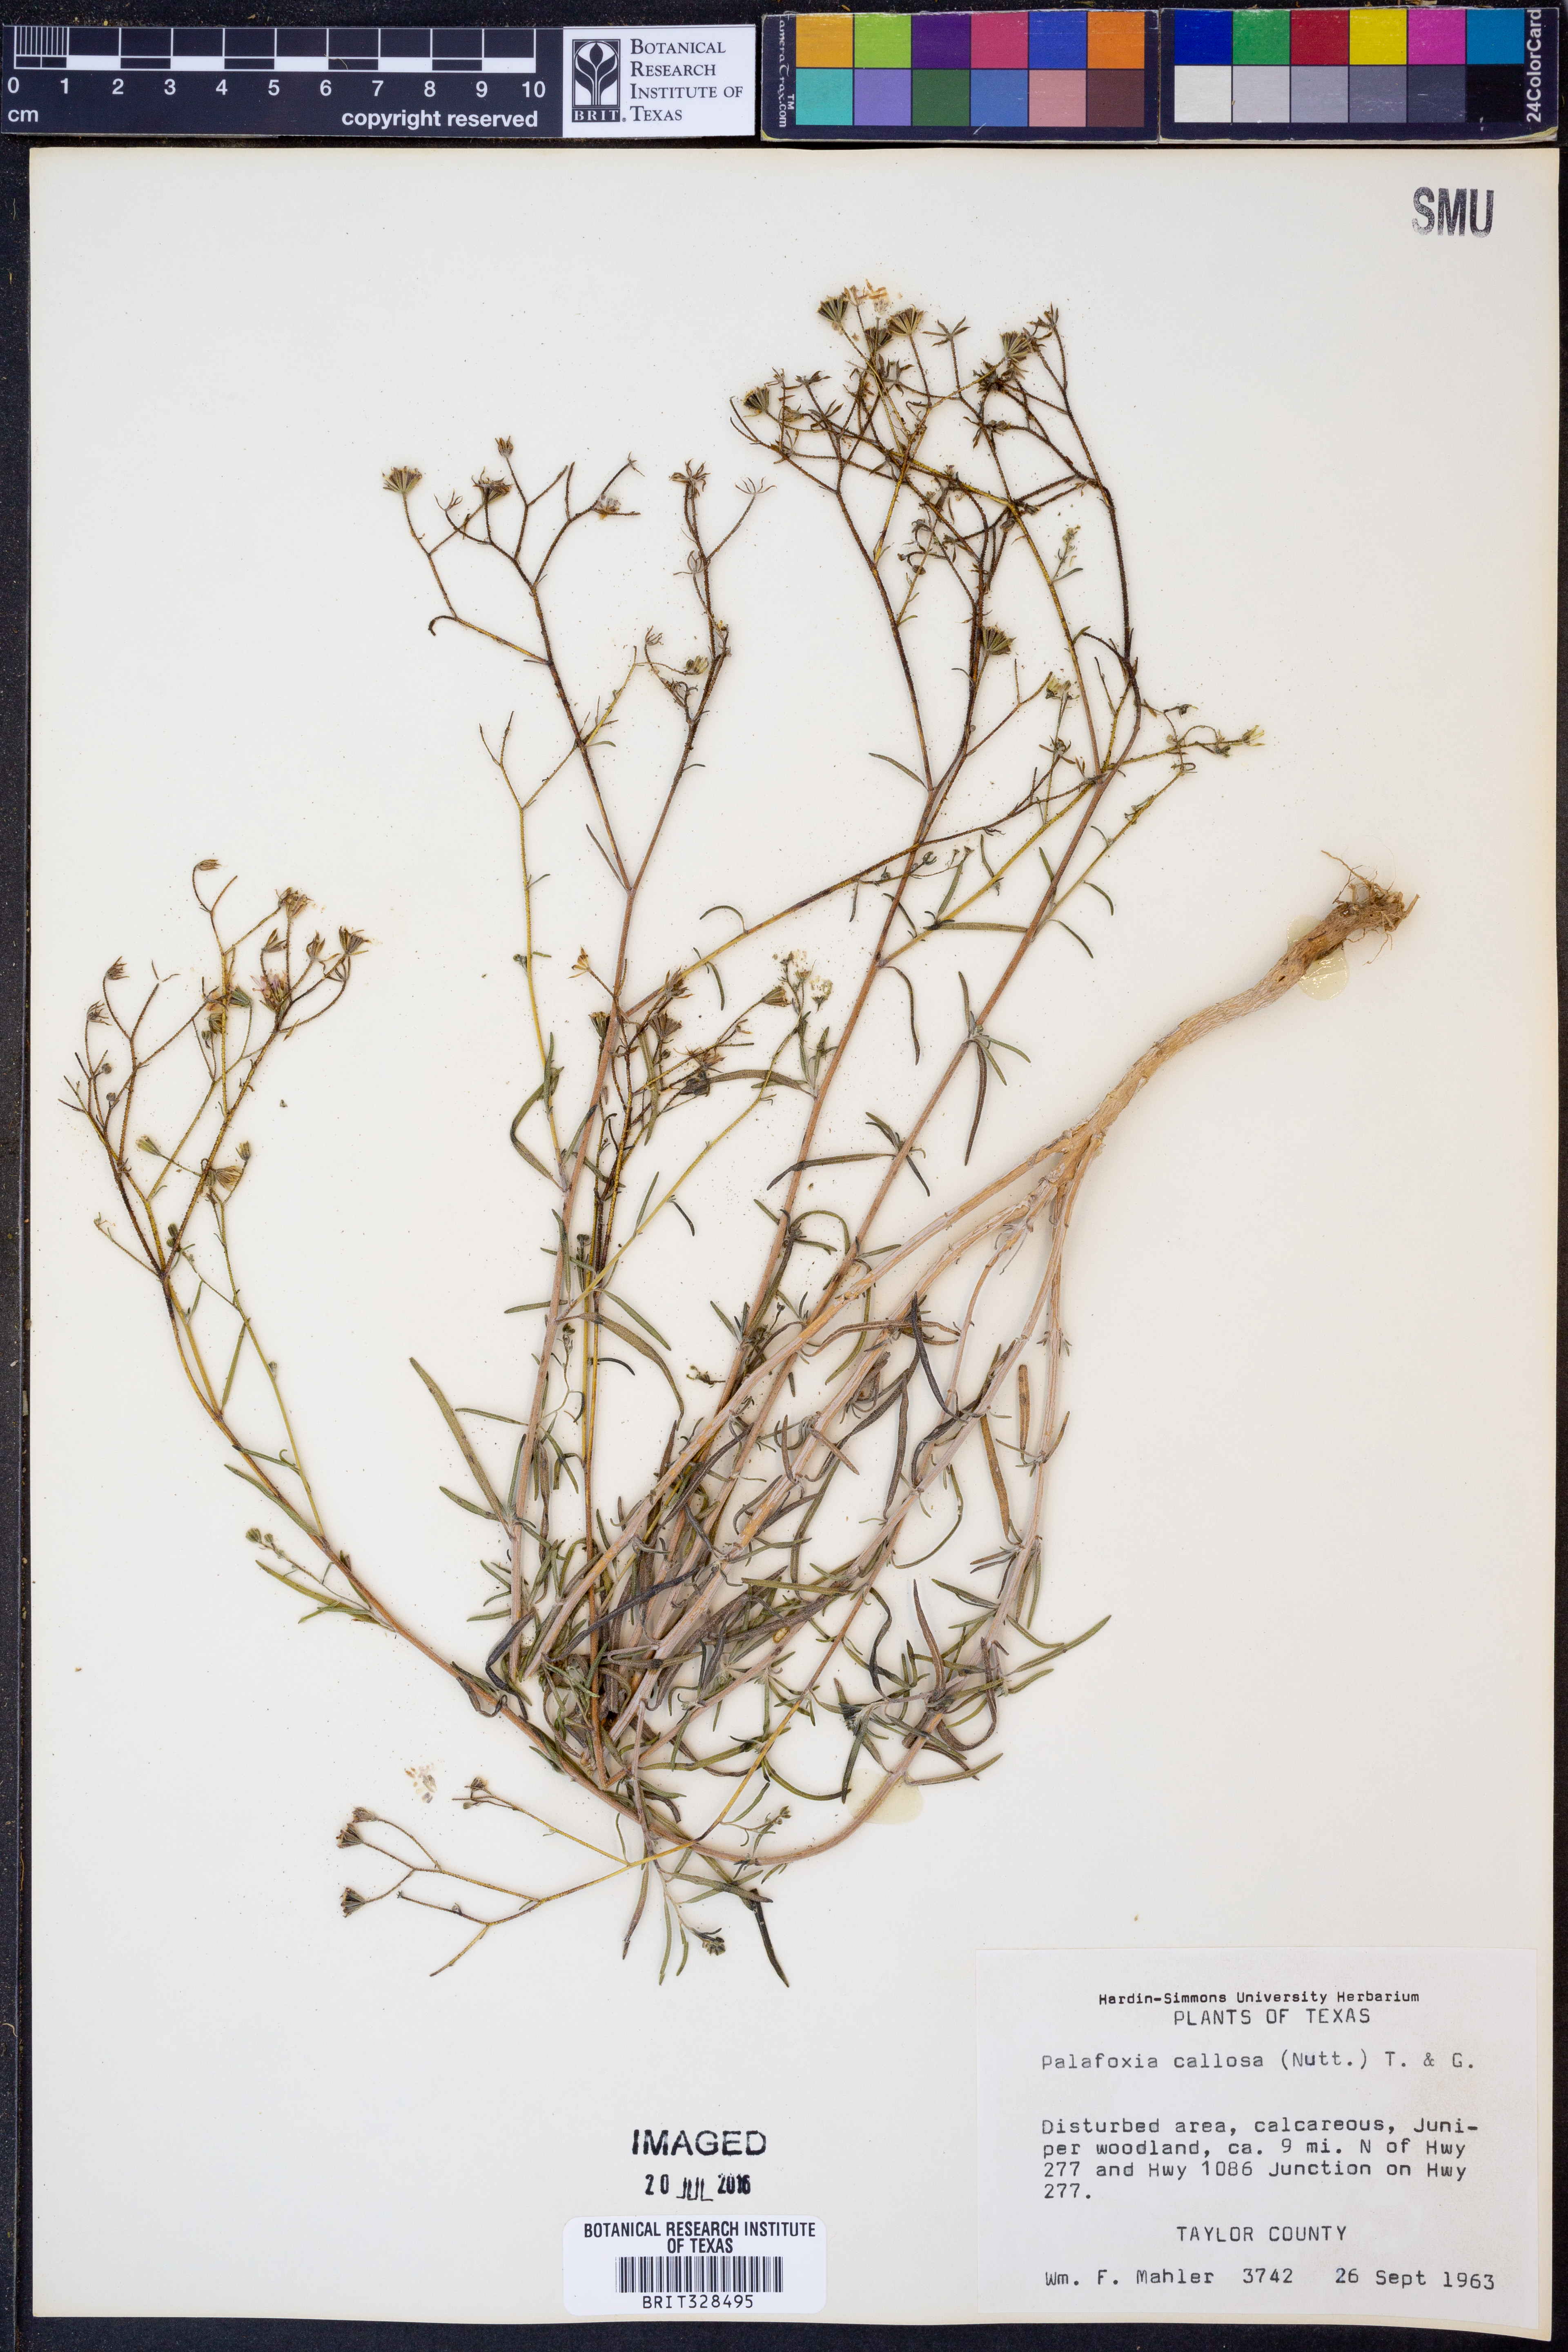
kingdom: Plantae
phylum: Tracheophyta
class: Magnoliopsida
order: Asterales
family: Asteraceae
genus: Palafoxia
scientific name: Palafoxia callosa
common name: Small palafox
